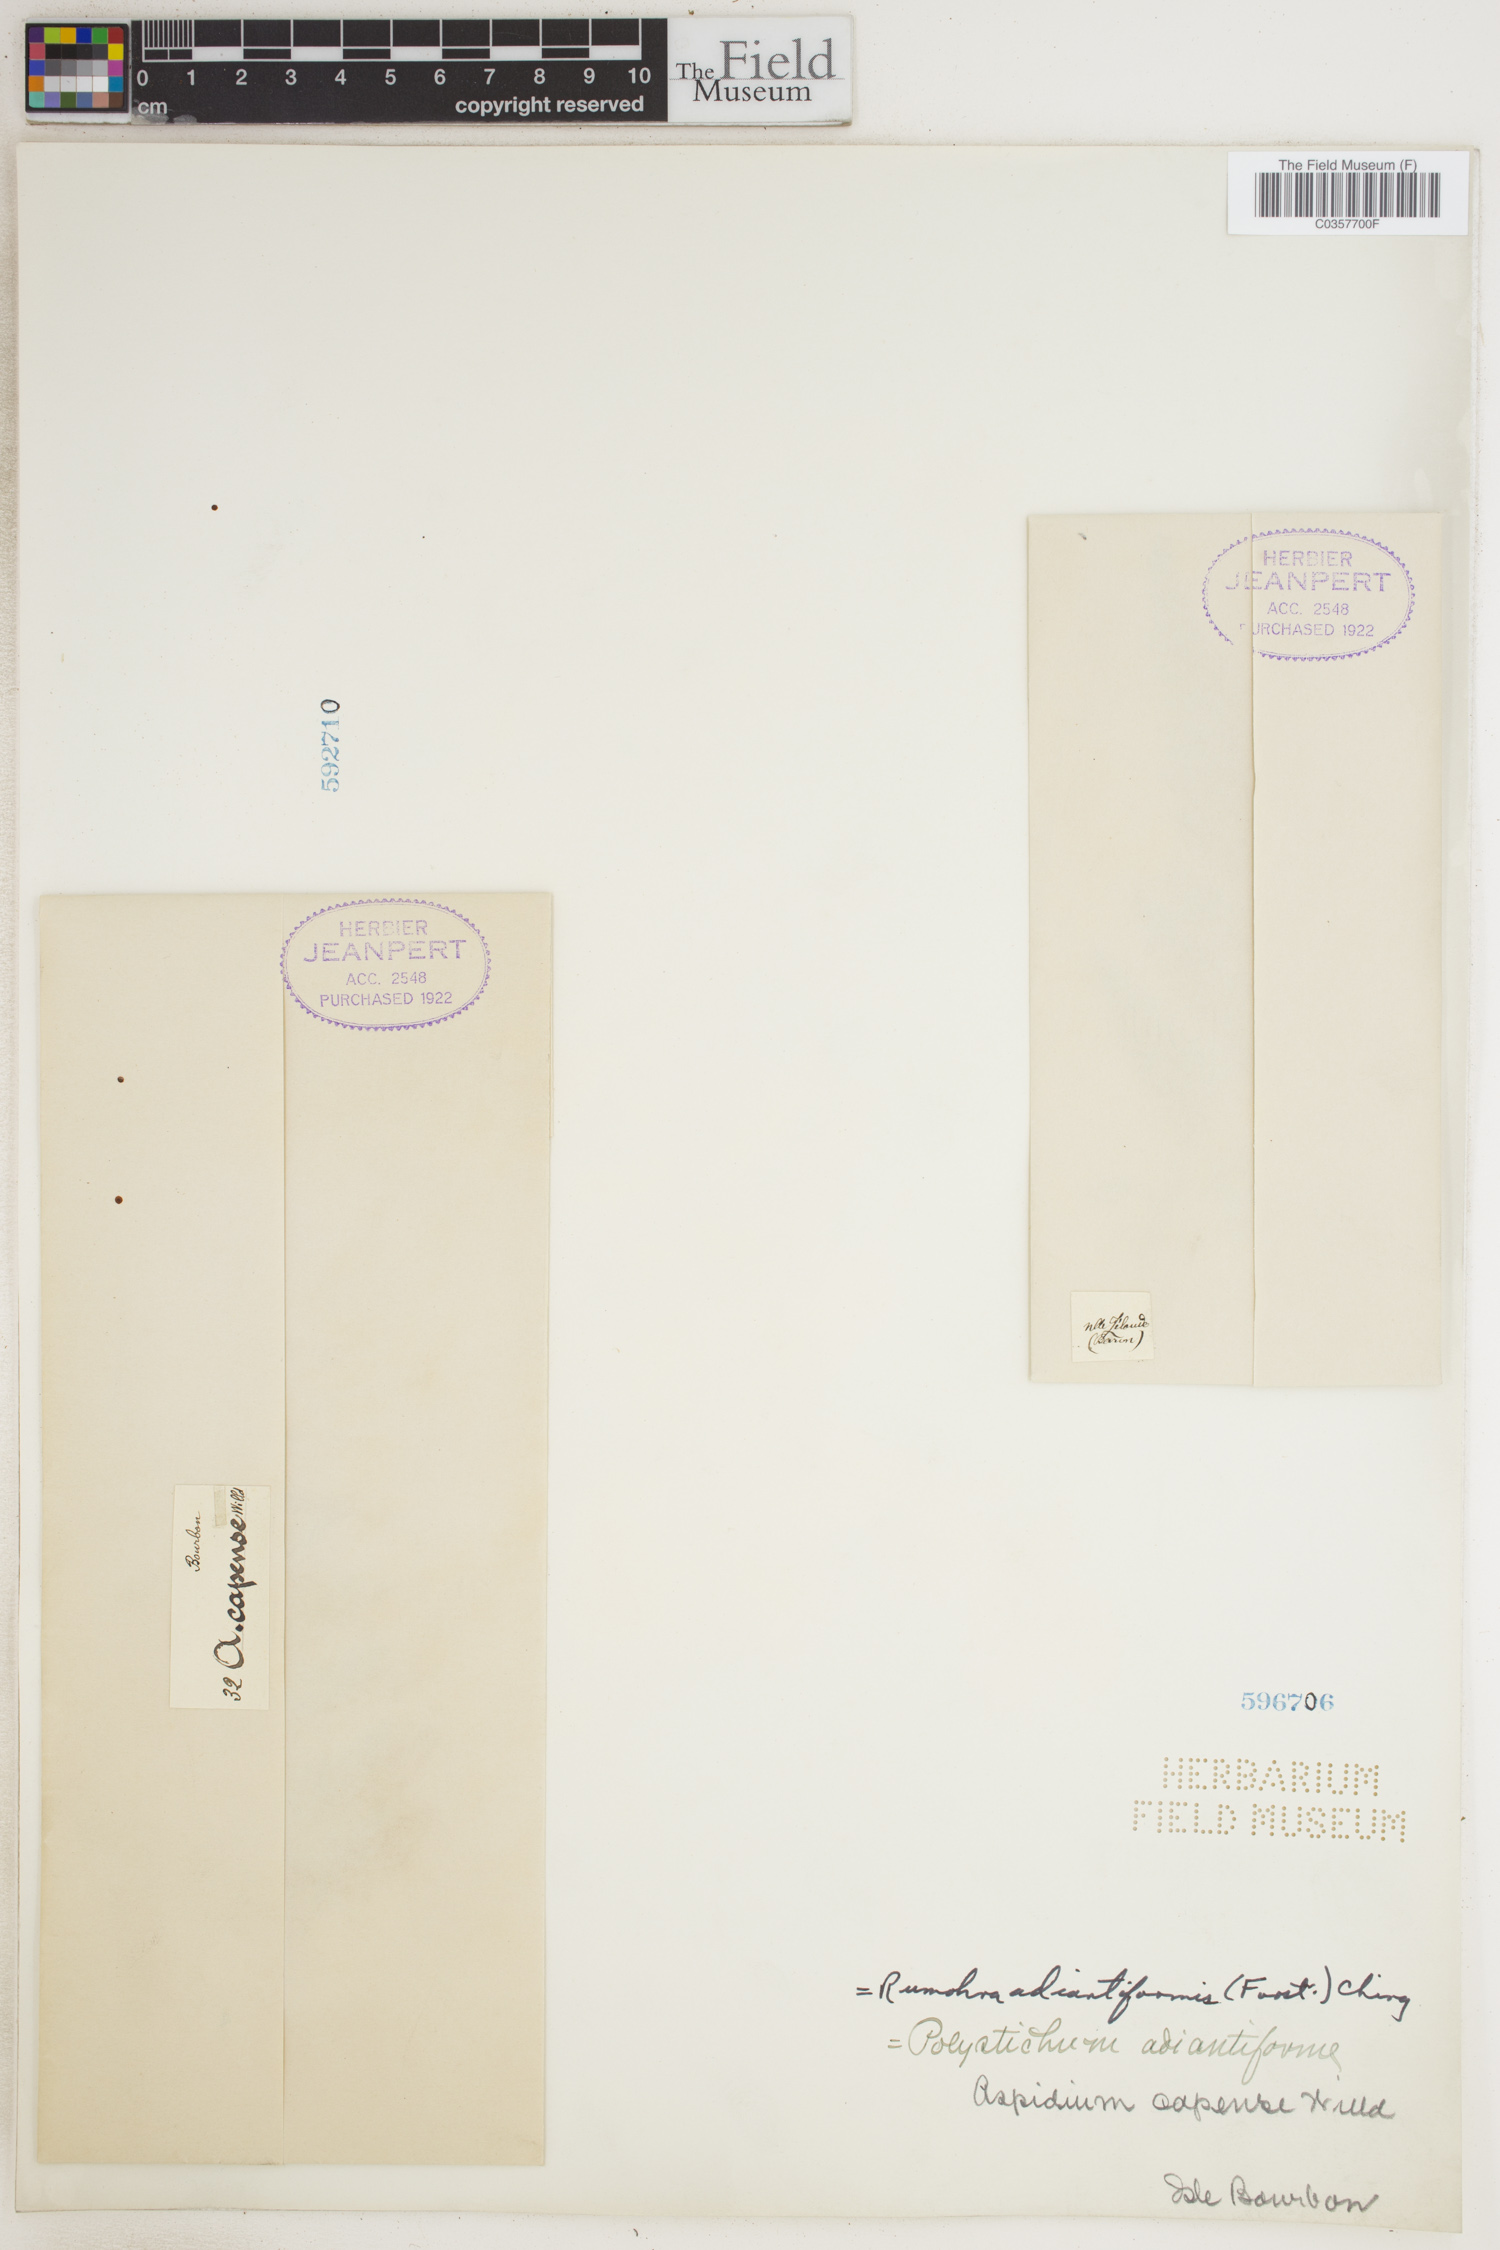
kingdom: Plantae
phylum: Tracheophyta
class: Polypodiopsida
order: Polypodiales
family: Dryopteridaceae
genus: Rumohra
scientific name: Rumohra adiantiformis
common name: Leather fern
